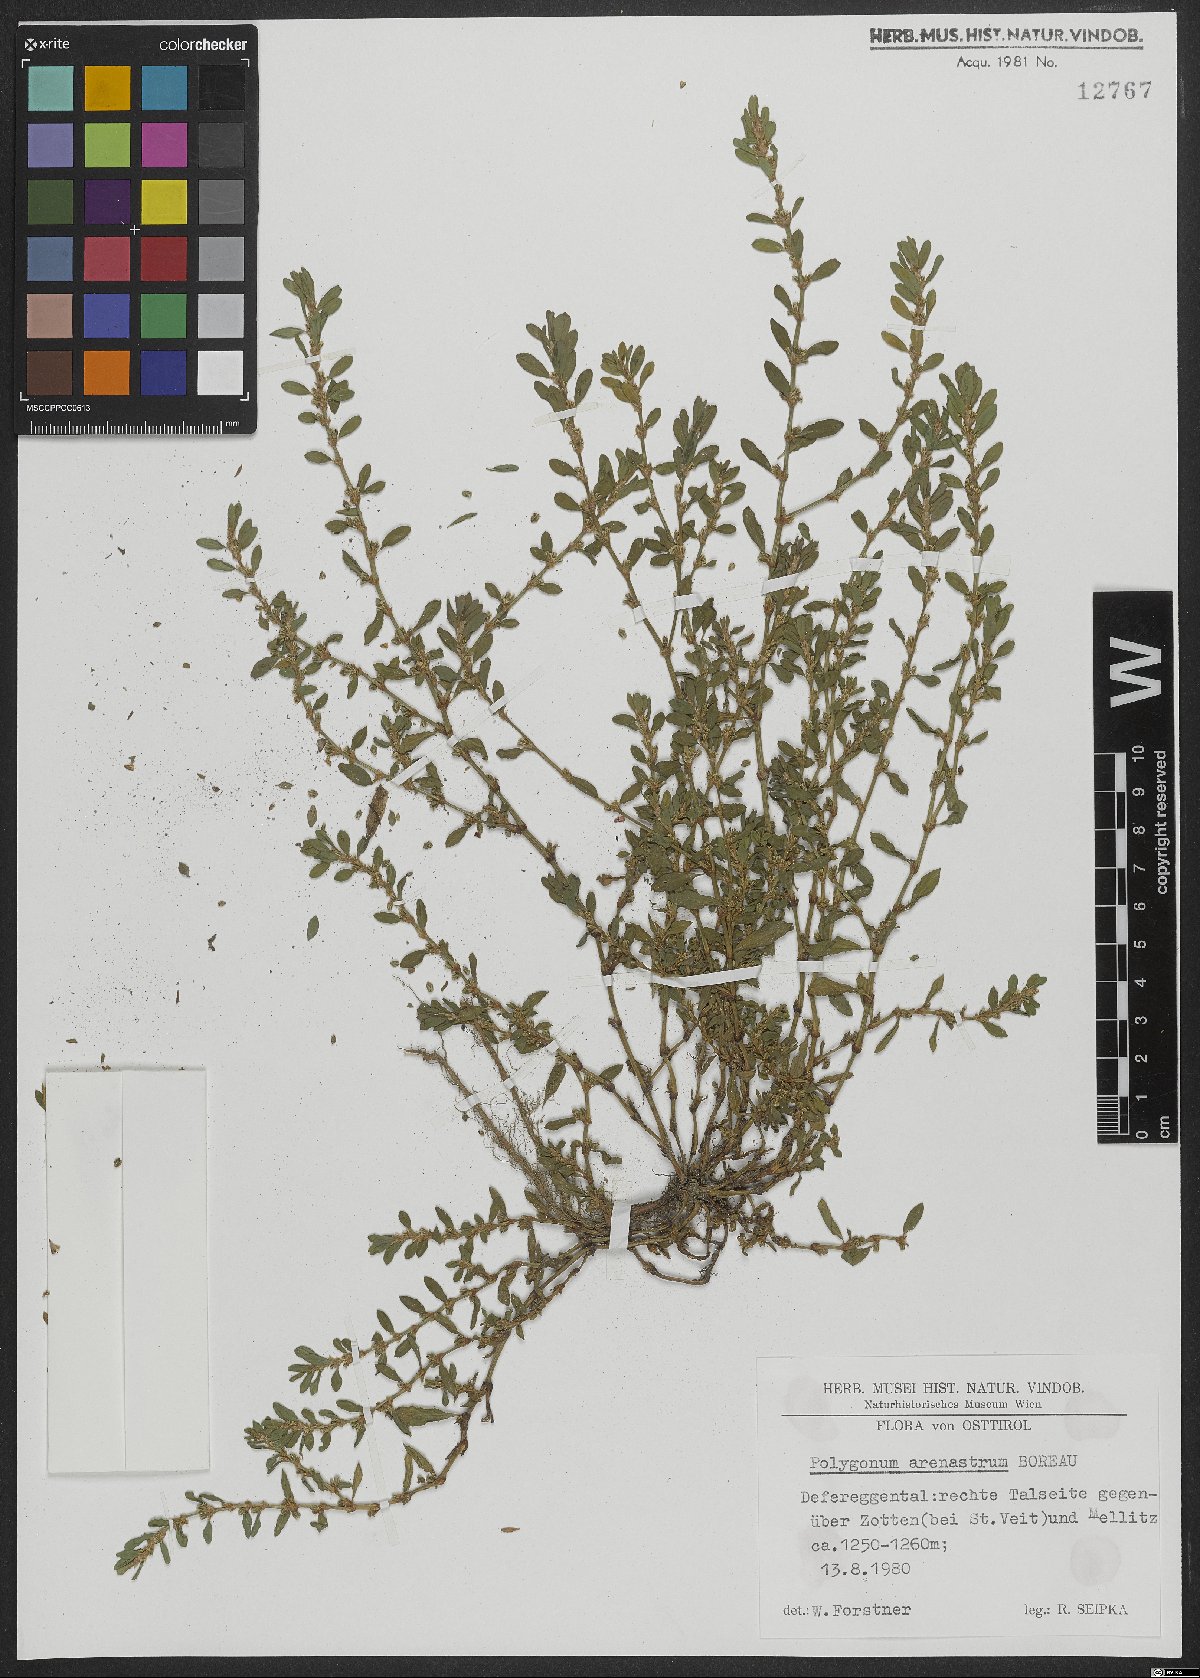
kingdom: Plantae
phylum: Tracheophyta
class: Magnoliopsida
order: Caryophyllales
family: Polygonaceae
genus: Polygonum
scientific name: Polygonum arenastrum
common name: Equal-leaved knotgrass
